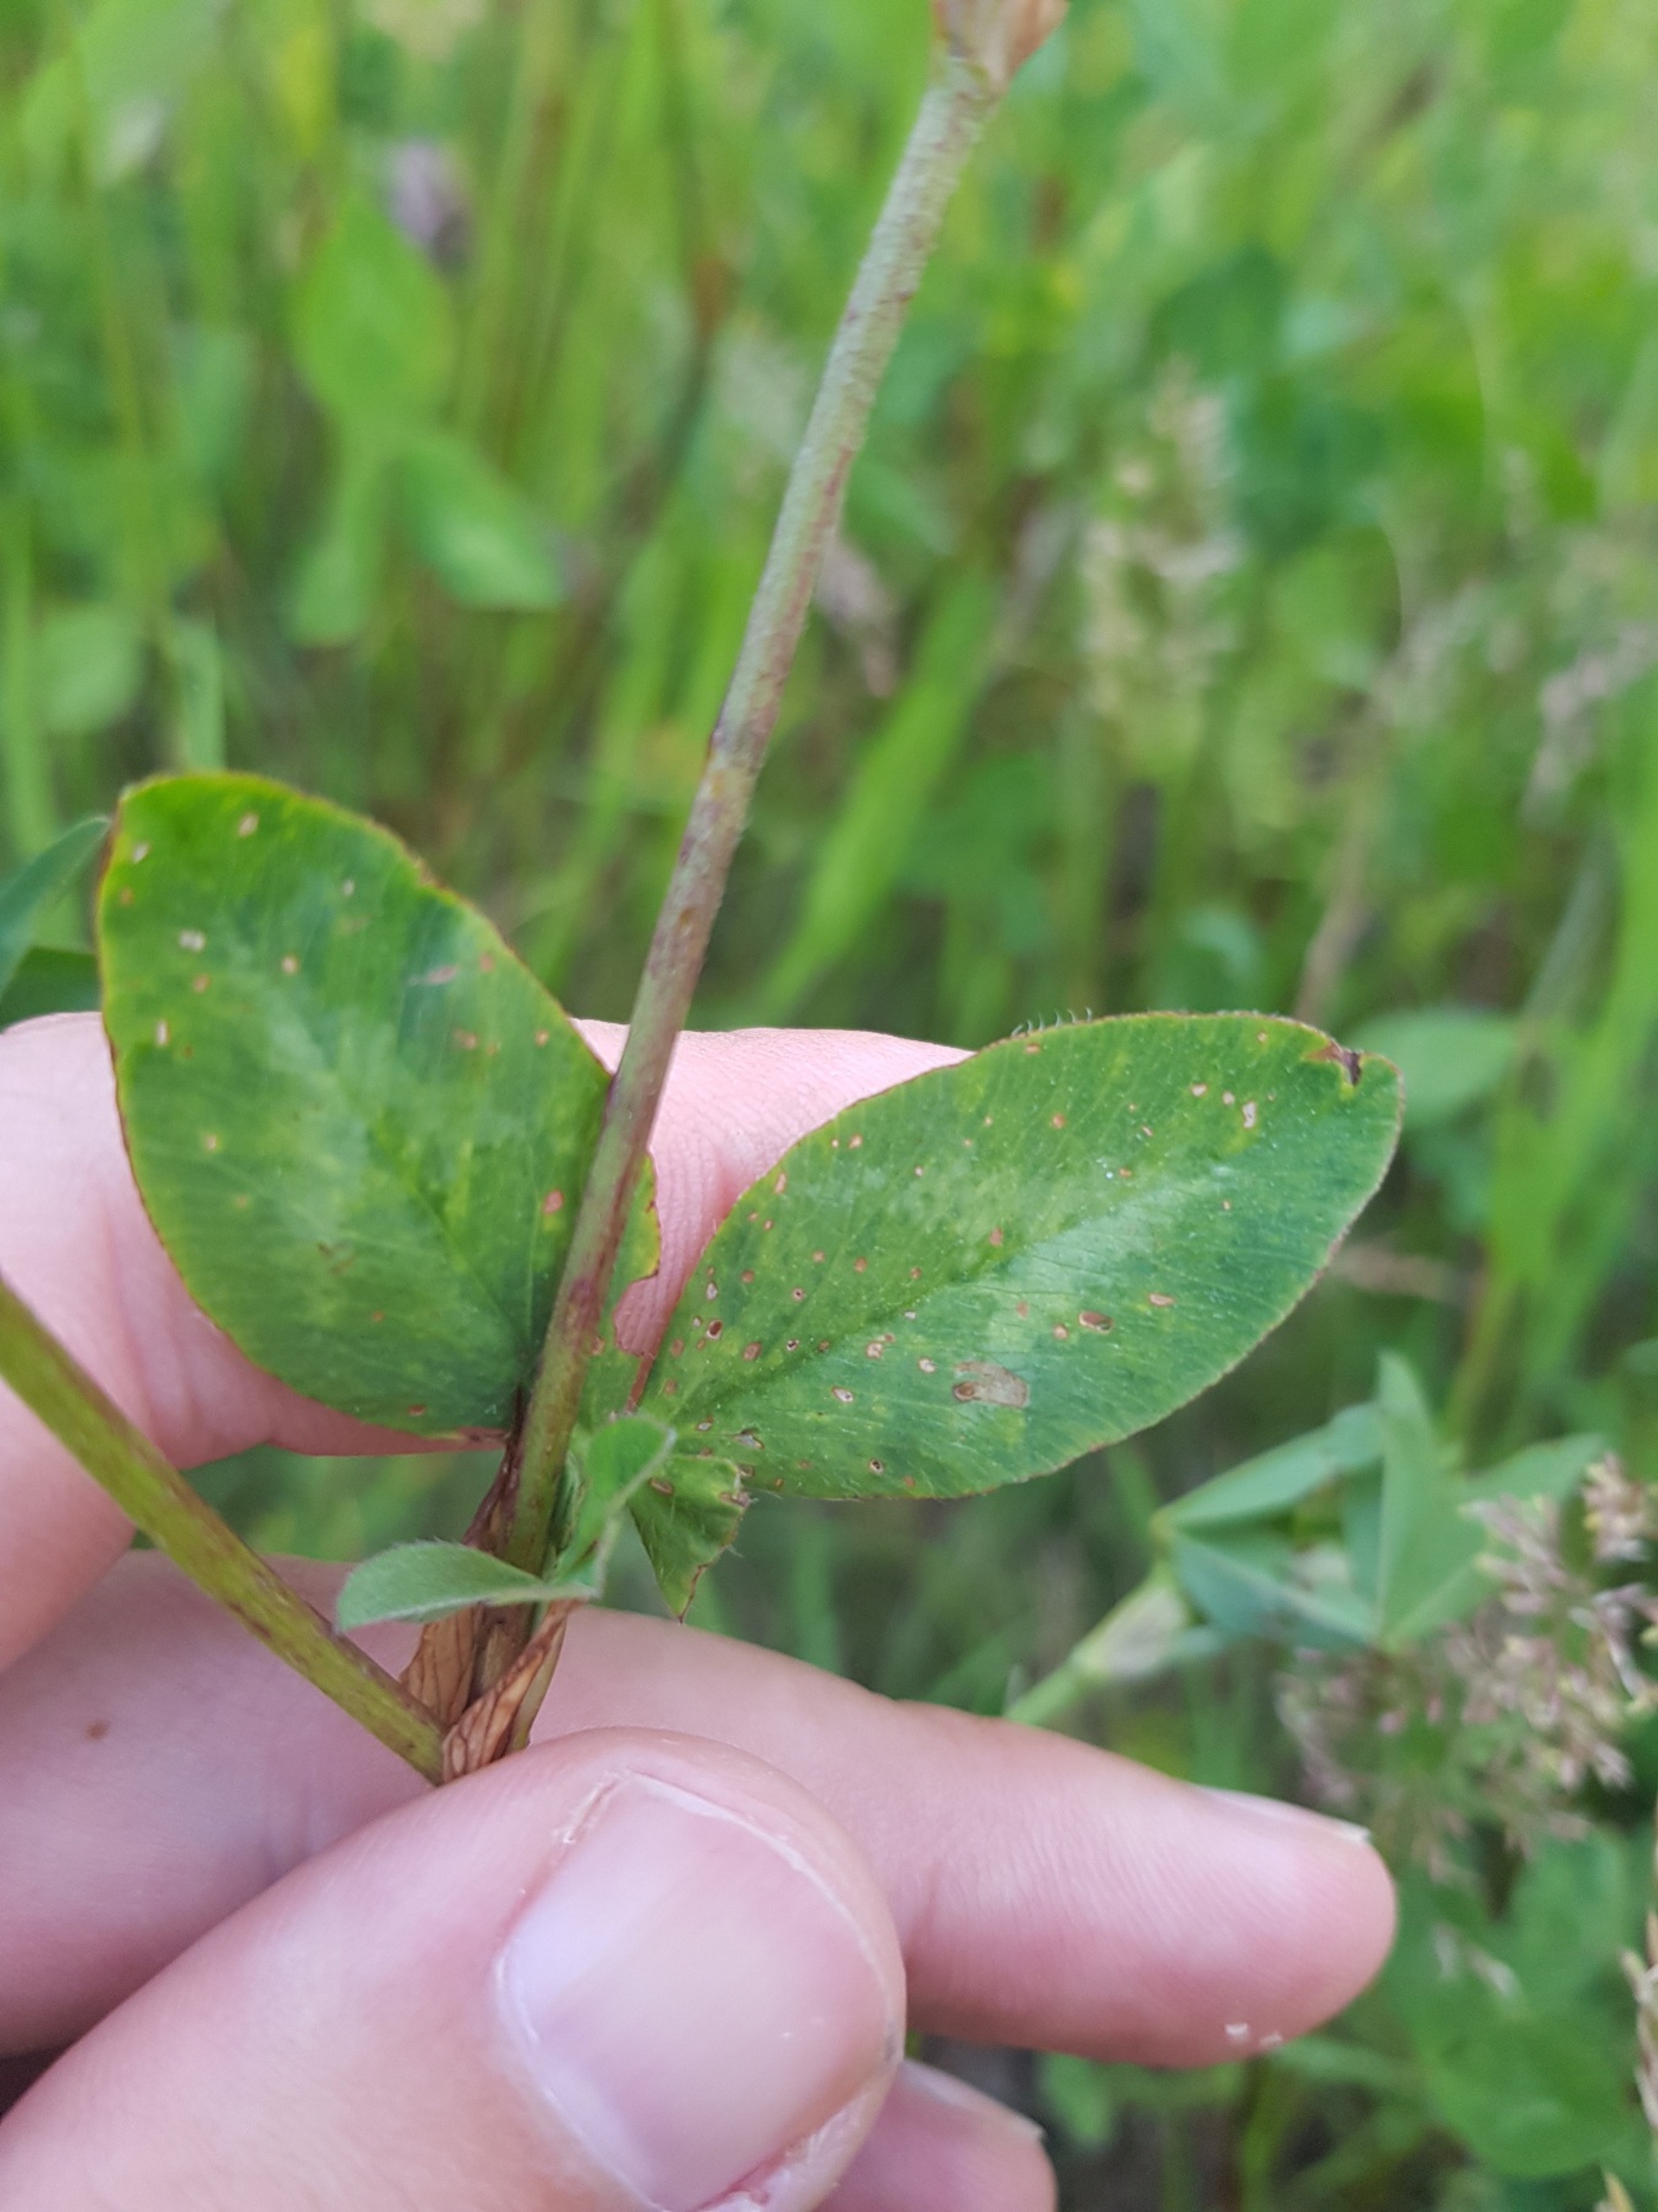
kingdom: Plantae
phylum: Tracheophyta
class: Magnoliopsida
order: Fabales
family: Fabaceae
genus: Trifolium
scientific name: Trifolium pratense
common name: Rød-kløver
